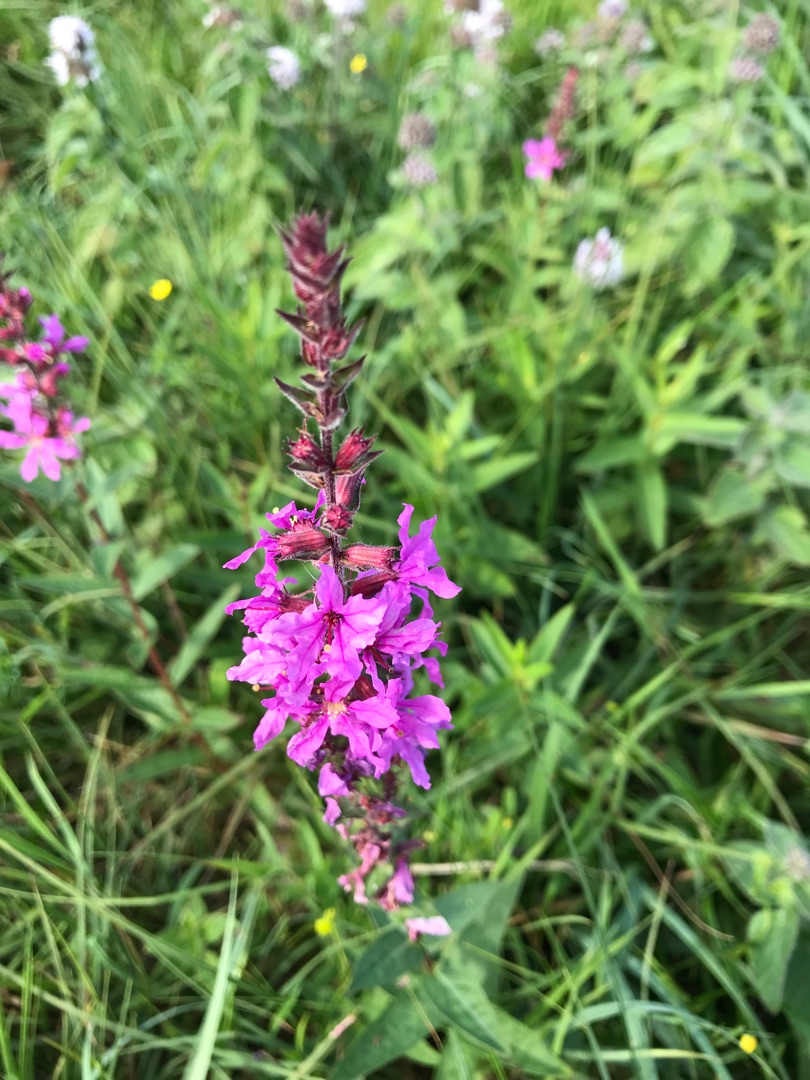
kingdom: Plantae
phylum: Tracheophyta
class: Magnoliopsida
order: Myrtales
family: Lythraceae
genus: Lythrum
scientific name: Lythrum salicaria
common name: Kattehale
